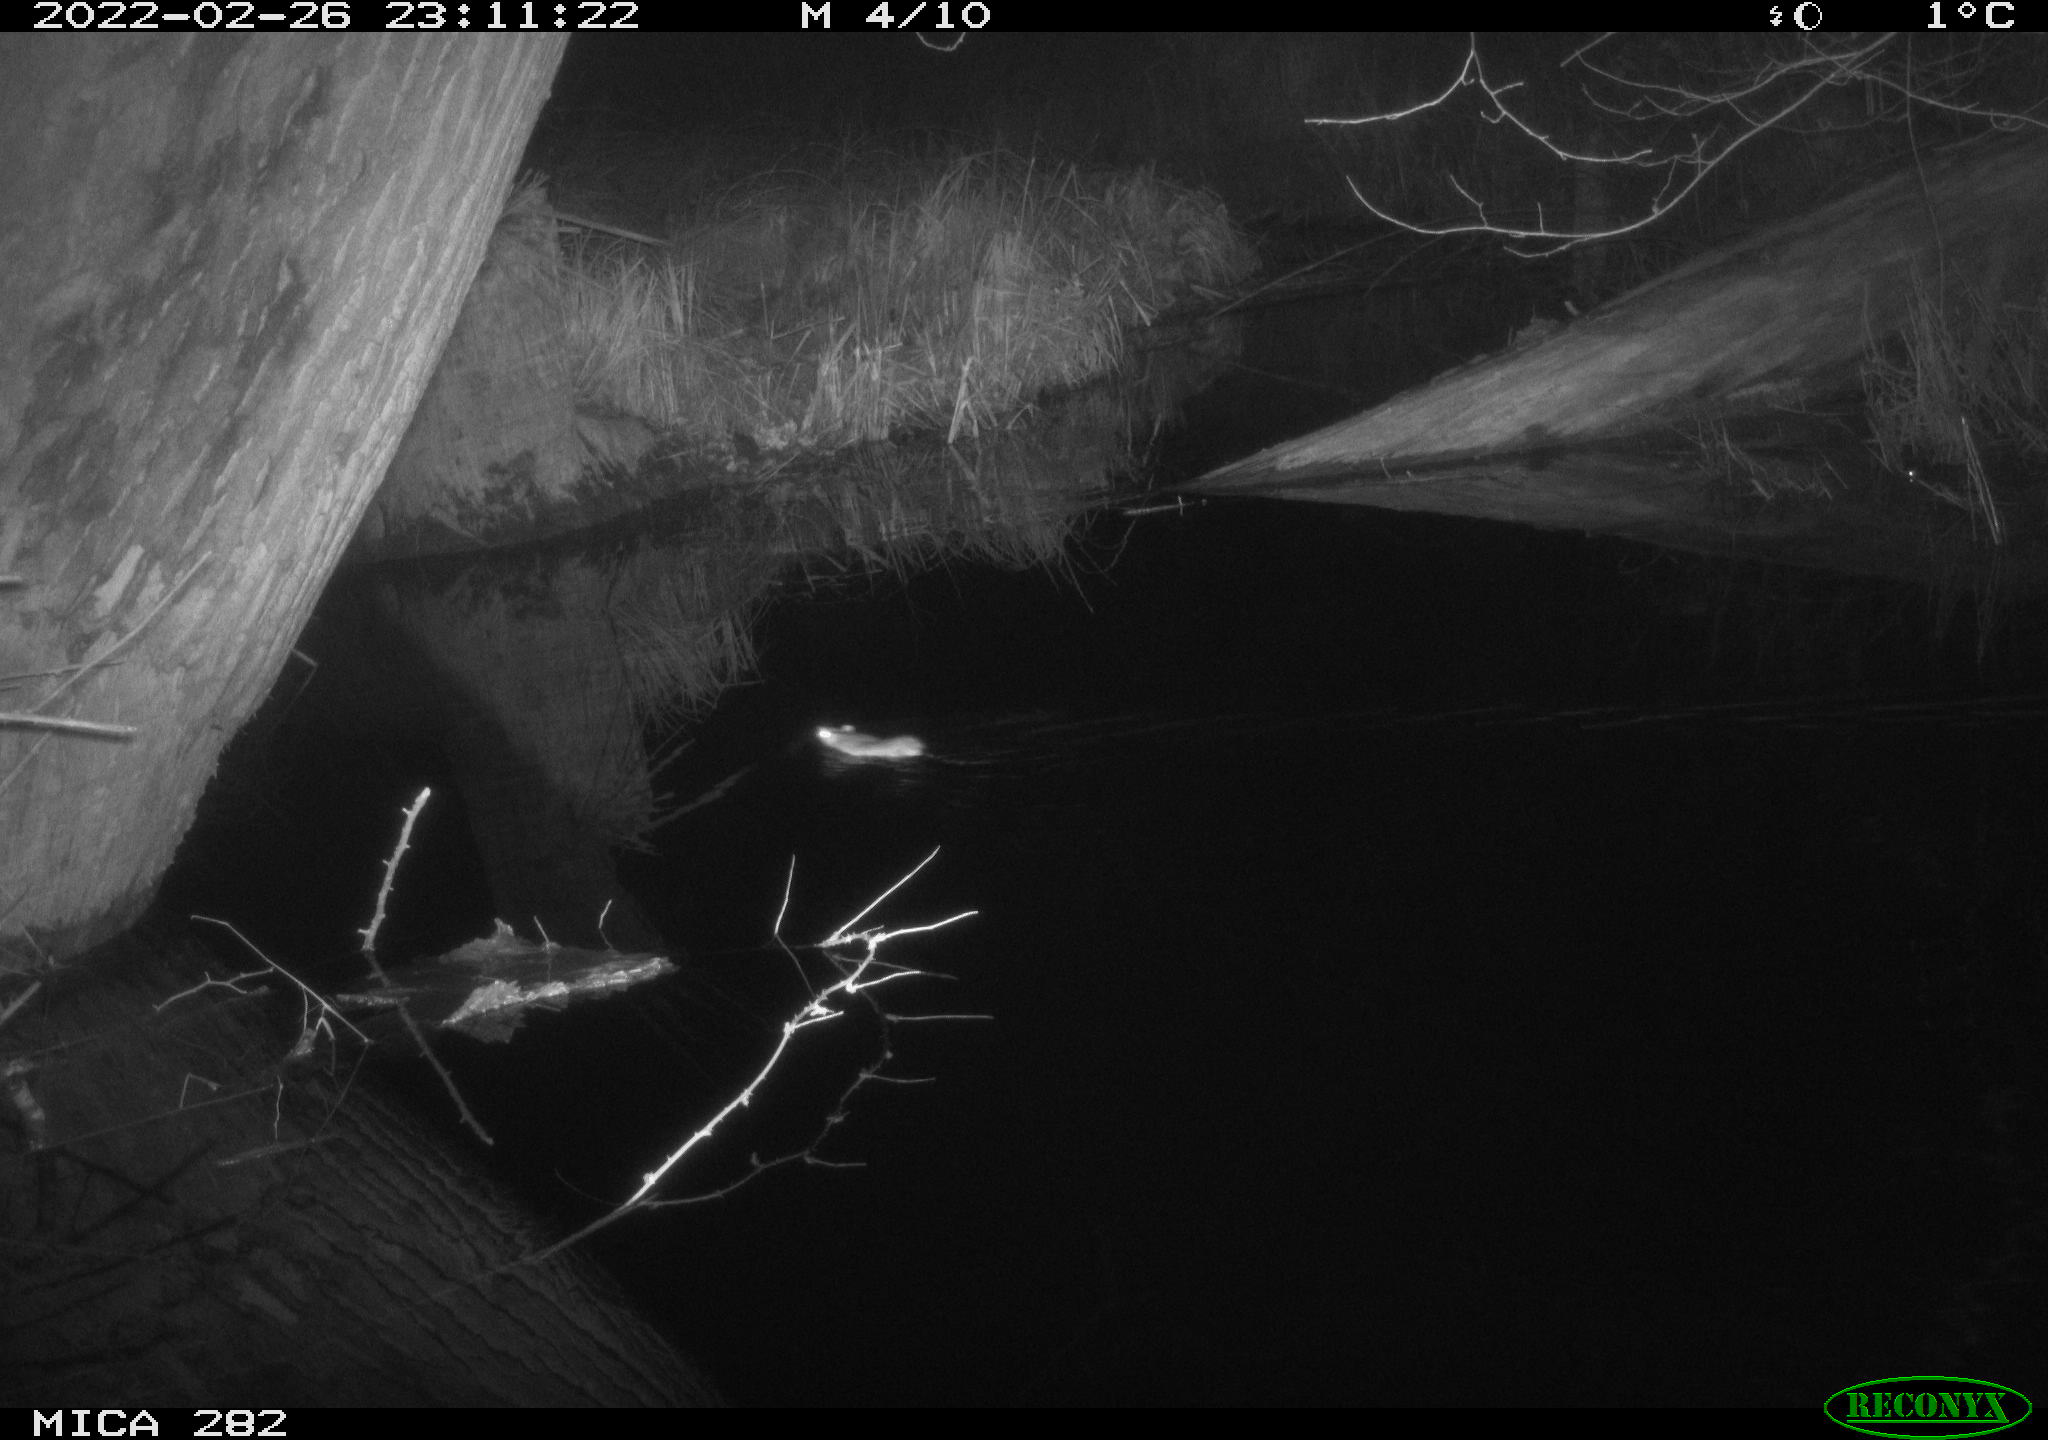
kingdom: Animalia
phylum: Chordata
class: Mammalia
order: Rodentia
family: Muridae
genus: Rattus
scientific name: Rattus norvegicus
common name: Brown rat
